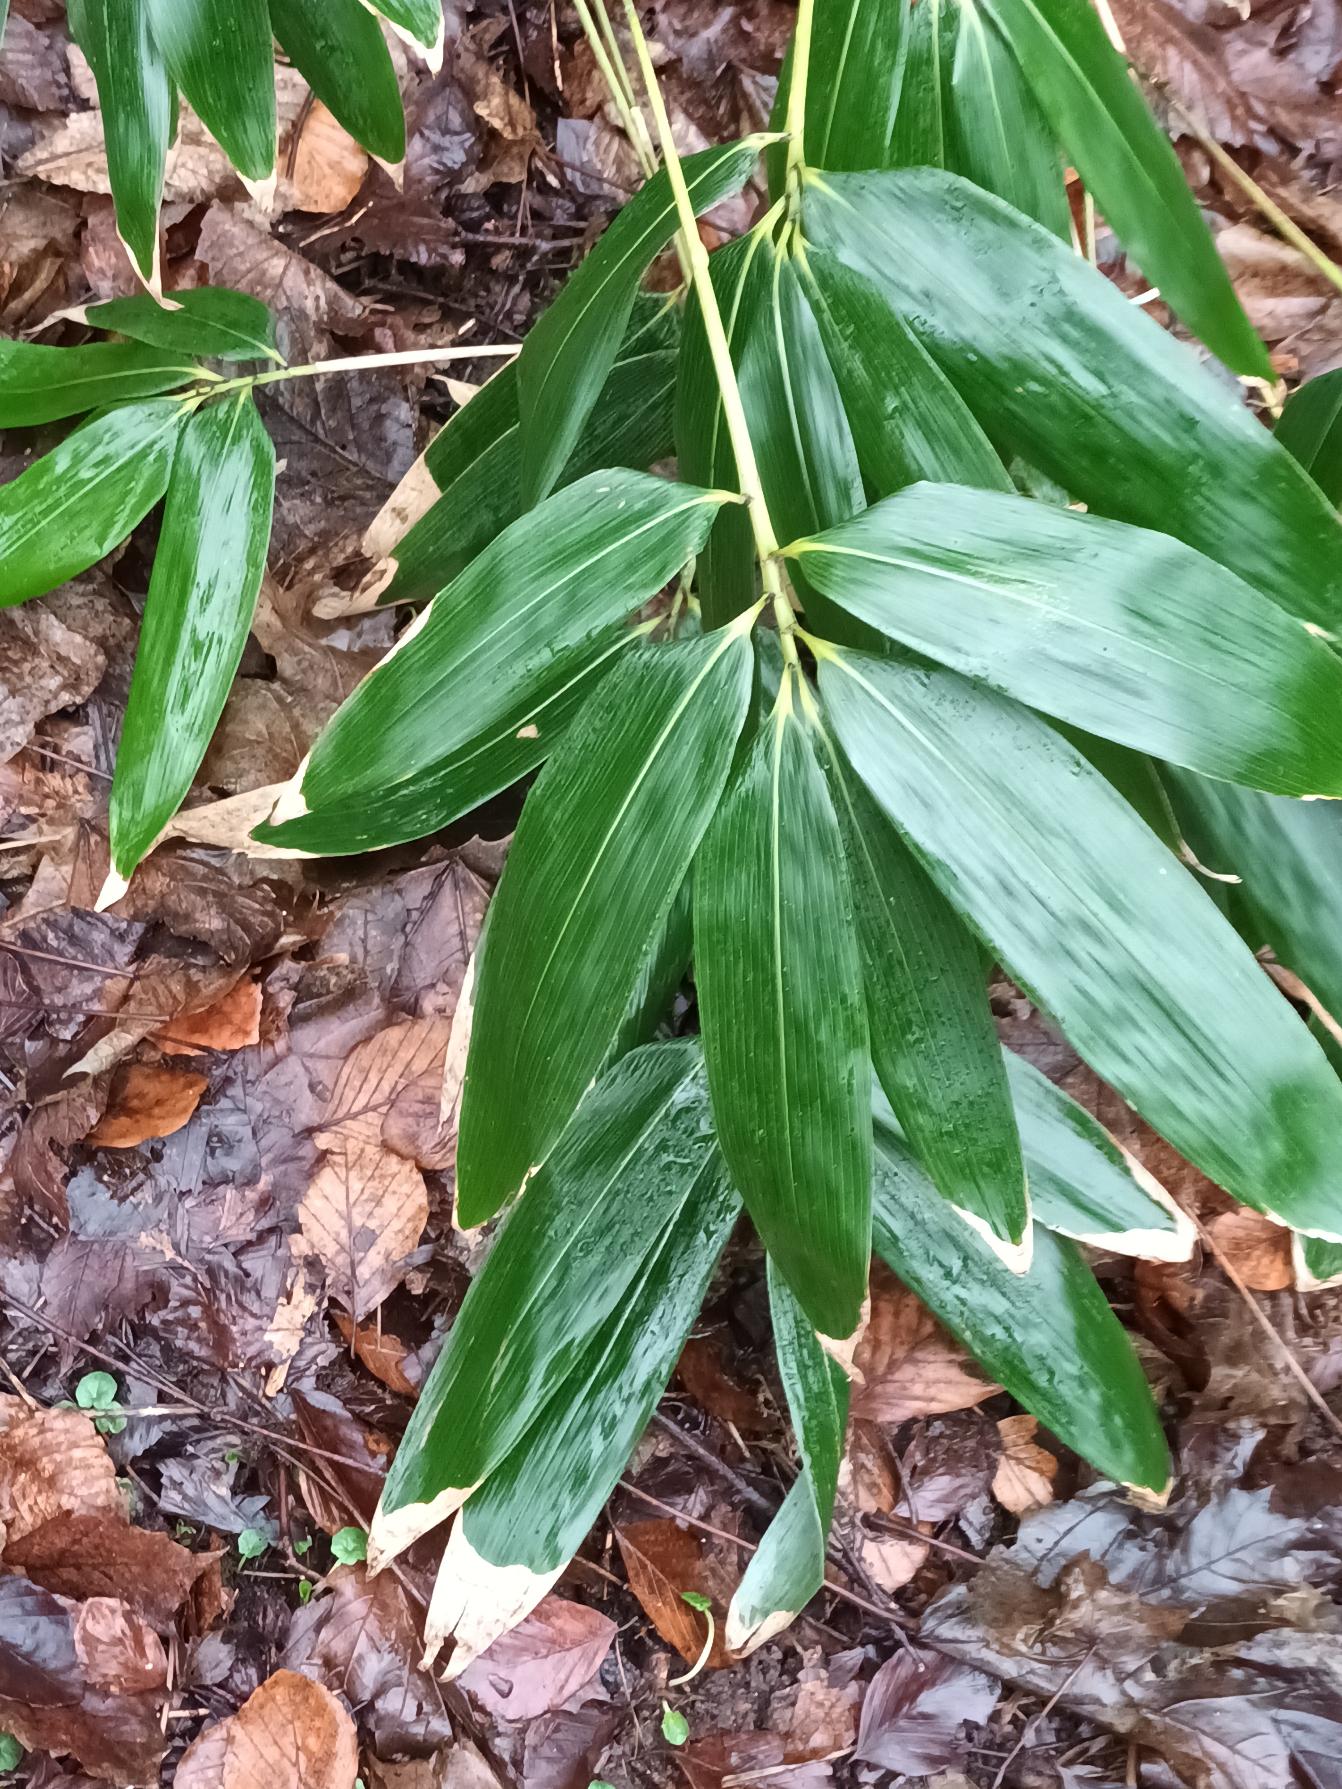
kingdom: Plantae
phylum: Tracheophyta
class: Liliopsida
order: Poales
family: Poaceae
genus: Sasa
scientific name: Sasa palmata
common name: Palmebladet bambus
